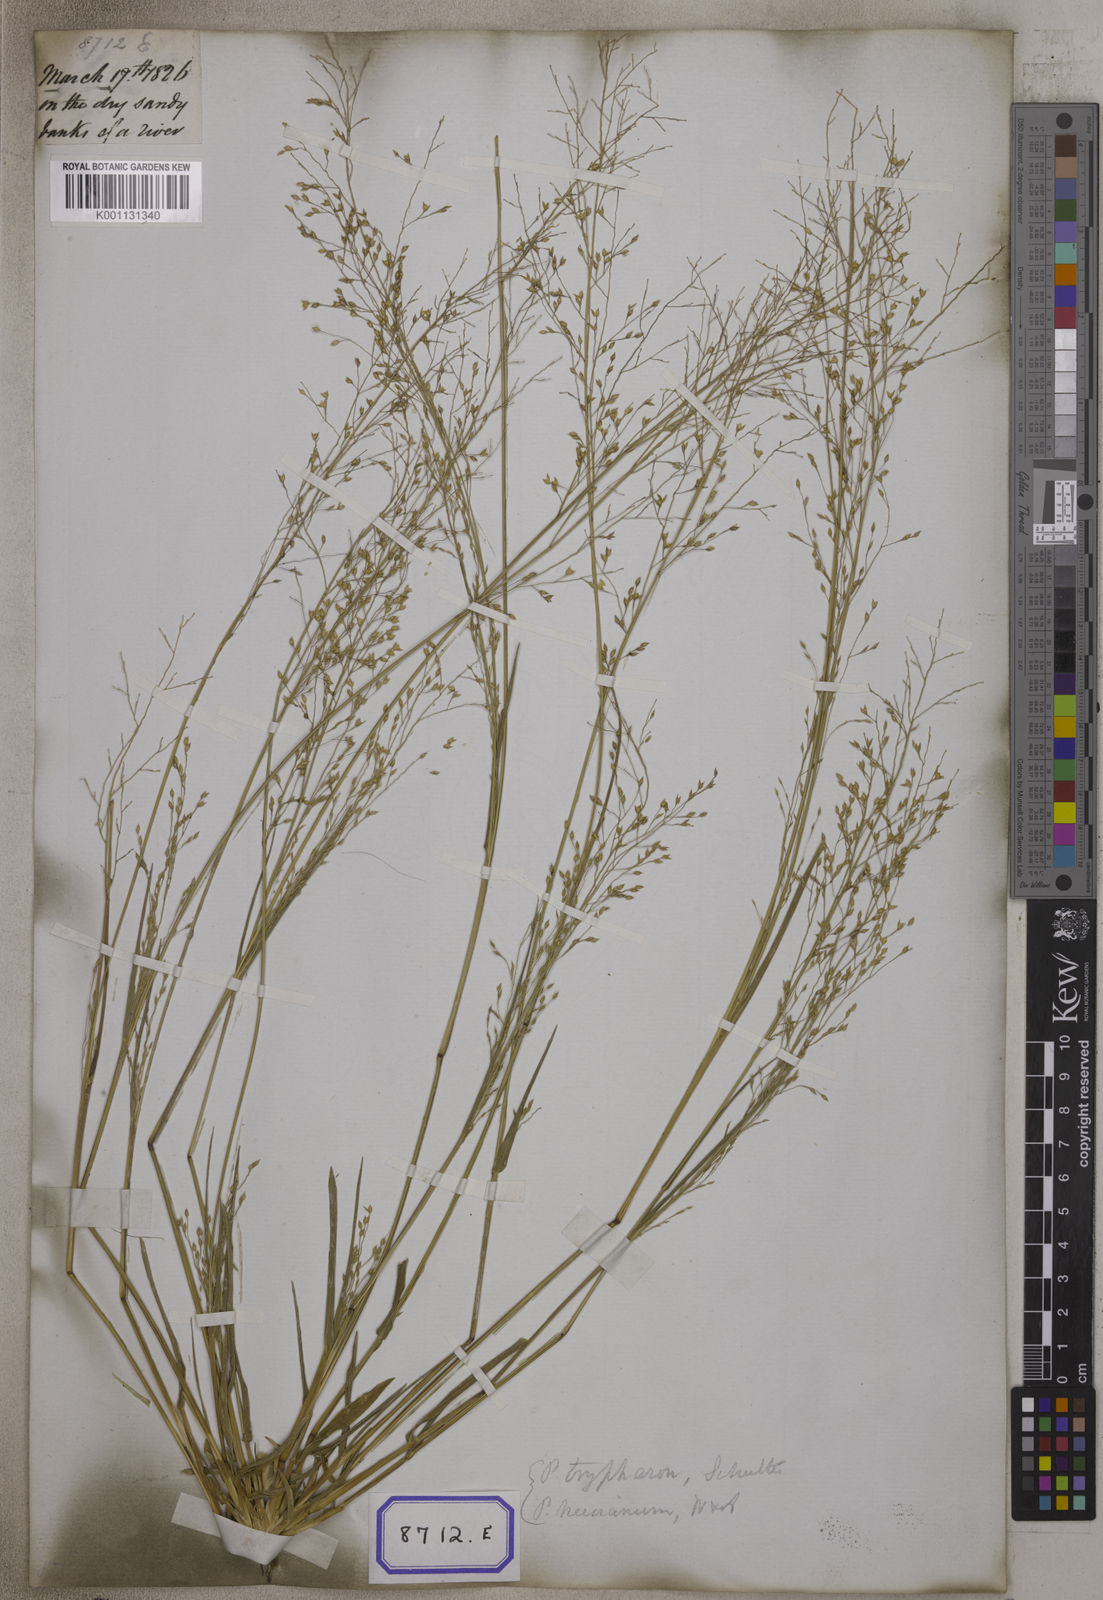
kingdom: Plantae
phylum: Tracheophyta
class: Liliopsida
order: Poales
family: Poaceae
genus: Panicum
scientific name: Panicum antidotale
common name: Blue panicum
